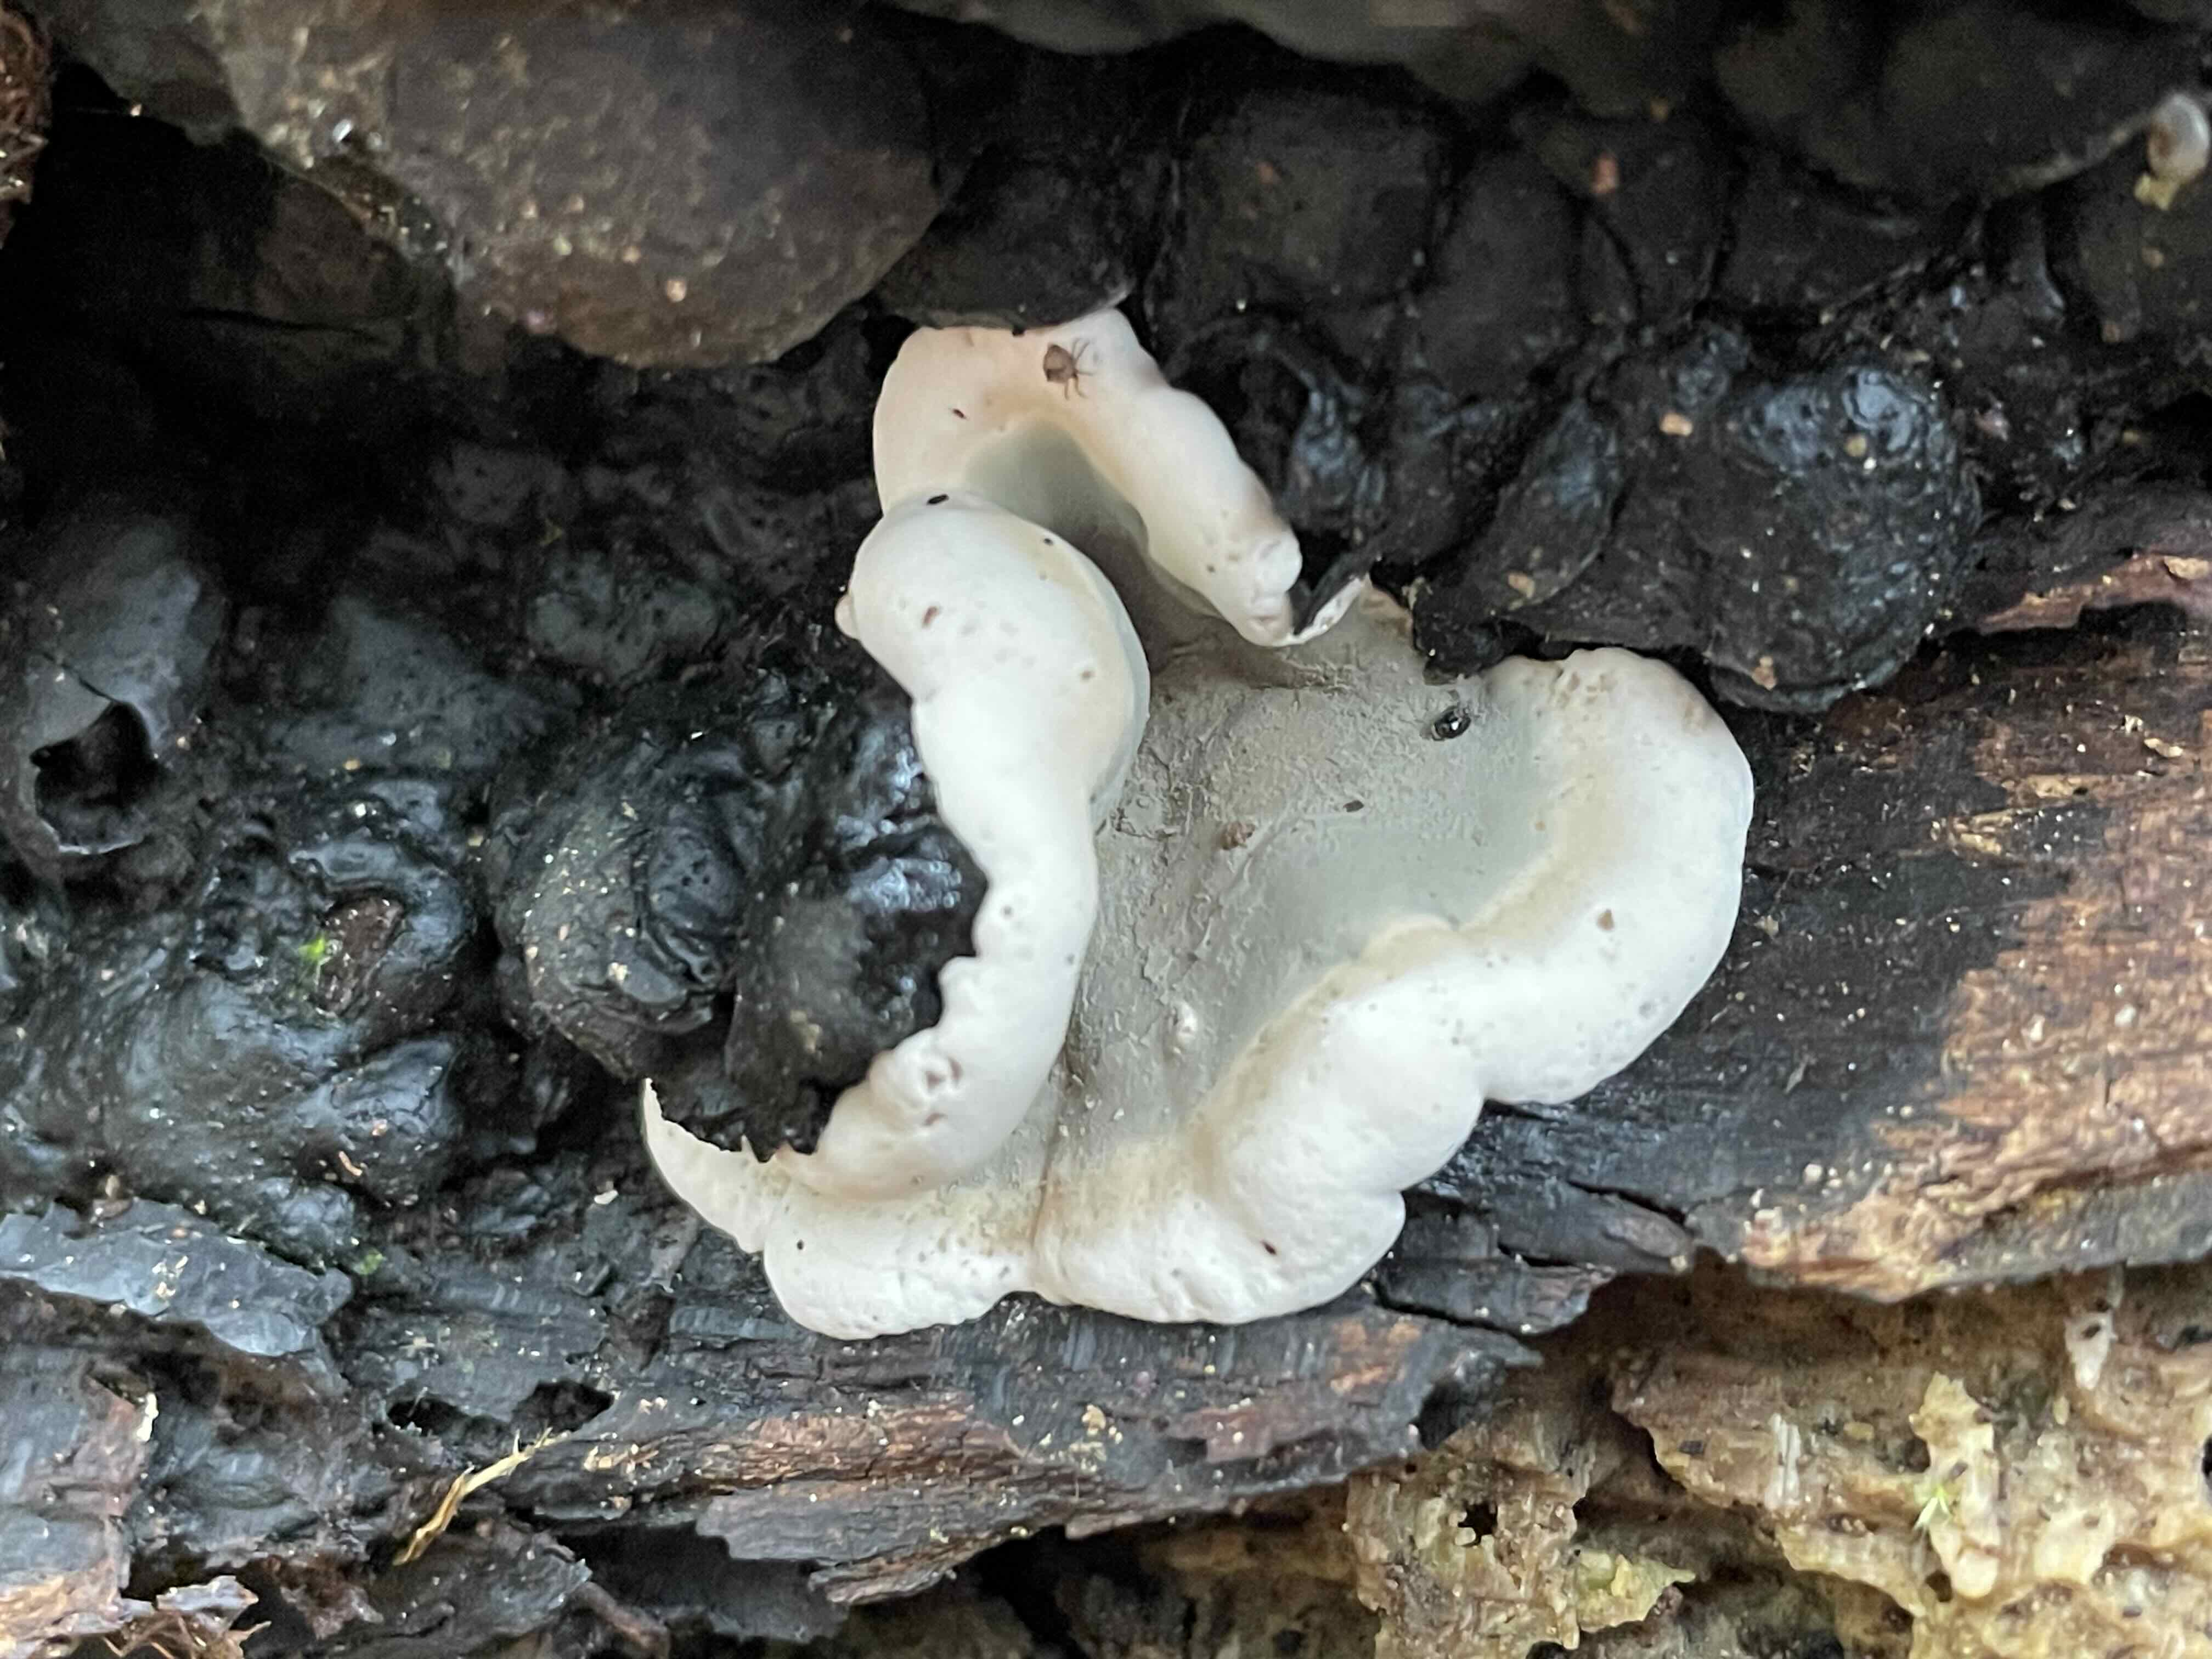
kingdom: Fungi
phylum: Ascomycota
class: Sordariomycetes
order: Xylariales
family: Xylariaceae
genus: Kretzschmaria
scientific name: Kretzschmaria deusta
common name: stor kulsvamp
